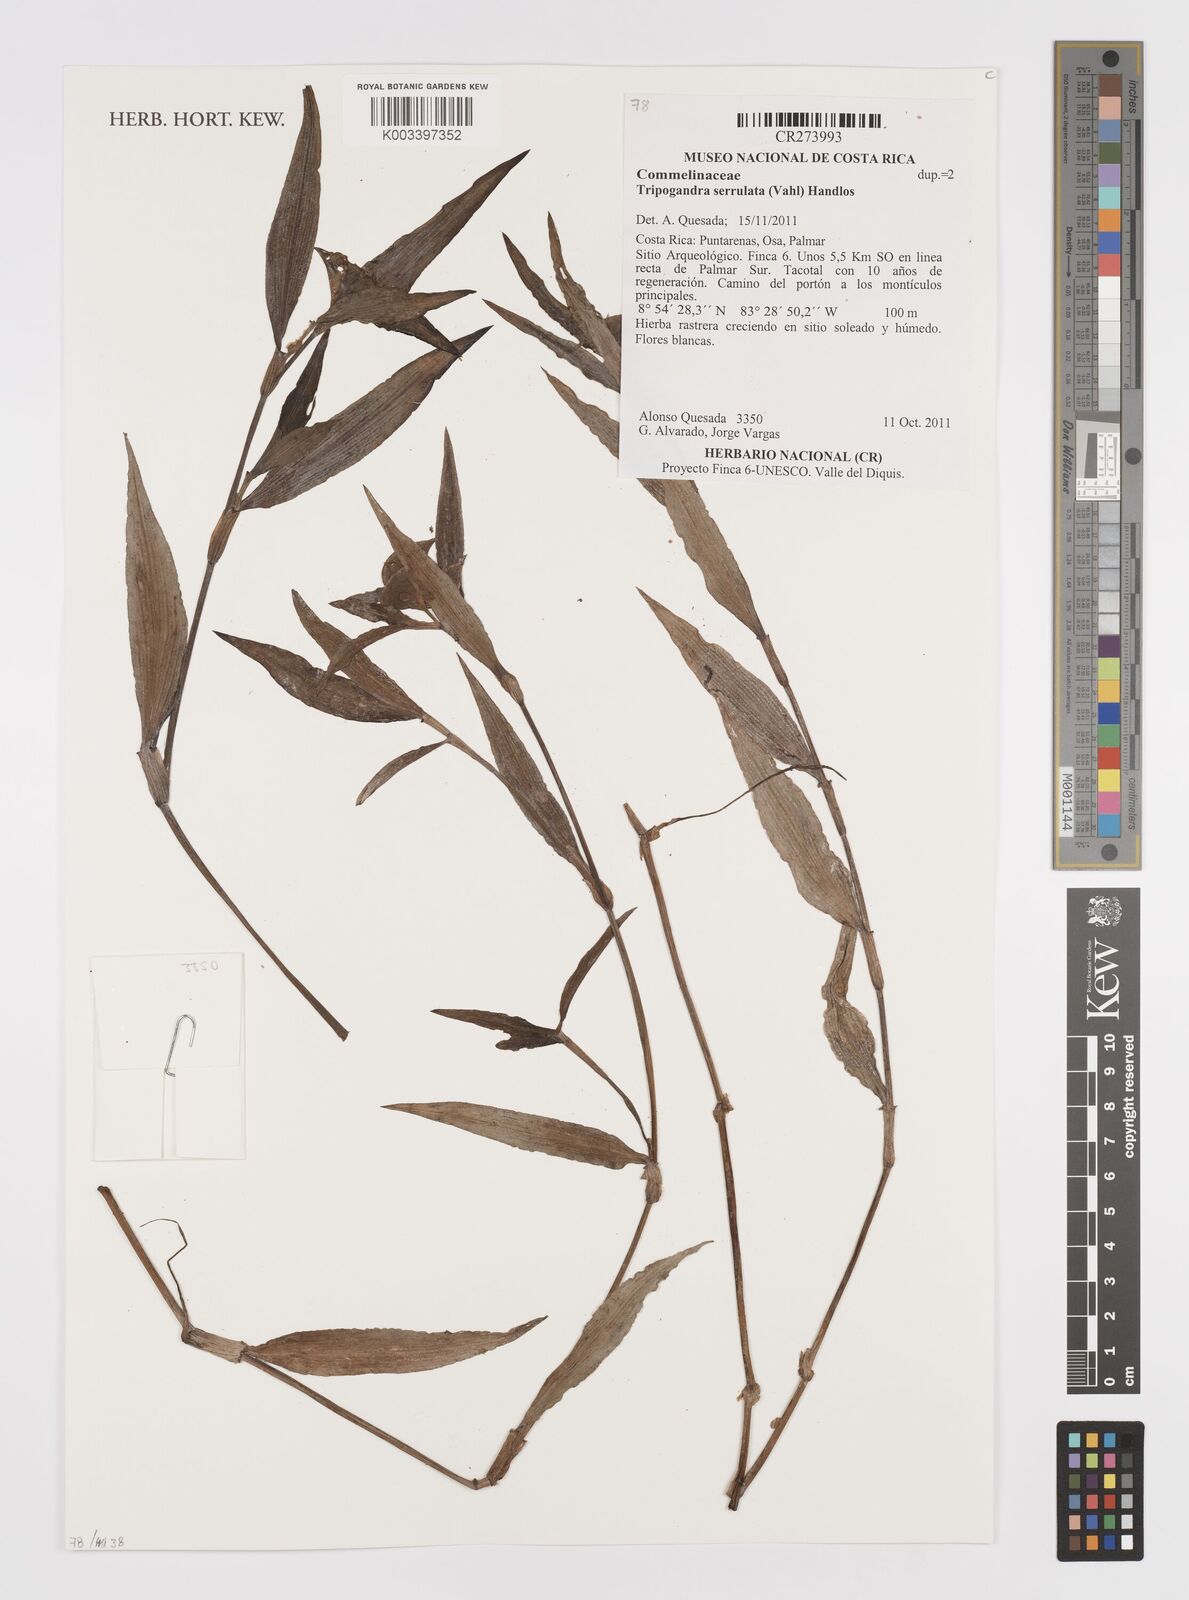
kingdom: Plantae
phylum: Tracheophyta
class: Liliopsida
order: Commelinales
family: Commelinaceae
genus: Callisia
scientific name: Callisia serrulata
